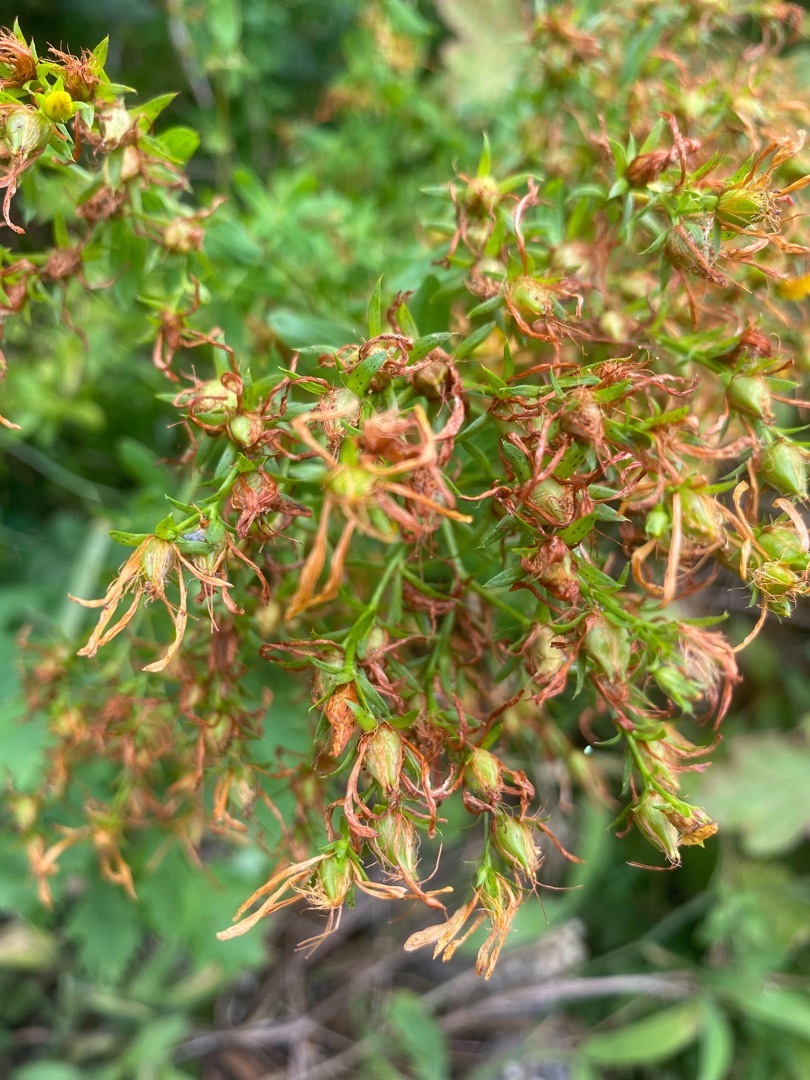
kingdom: Plantae
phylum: Tracheophyta
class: Magnoliopsida
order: Malpighiales
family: Hypericaceae
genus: Hypericum
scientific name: Hypericum perforatum
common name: Prikbladet perikon
